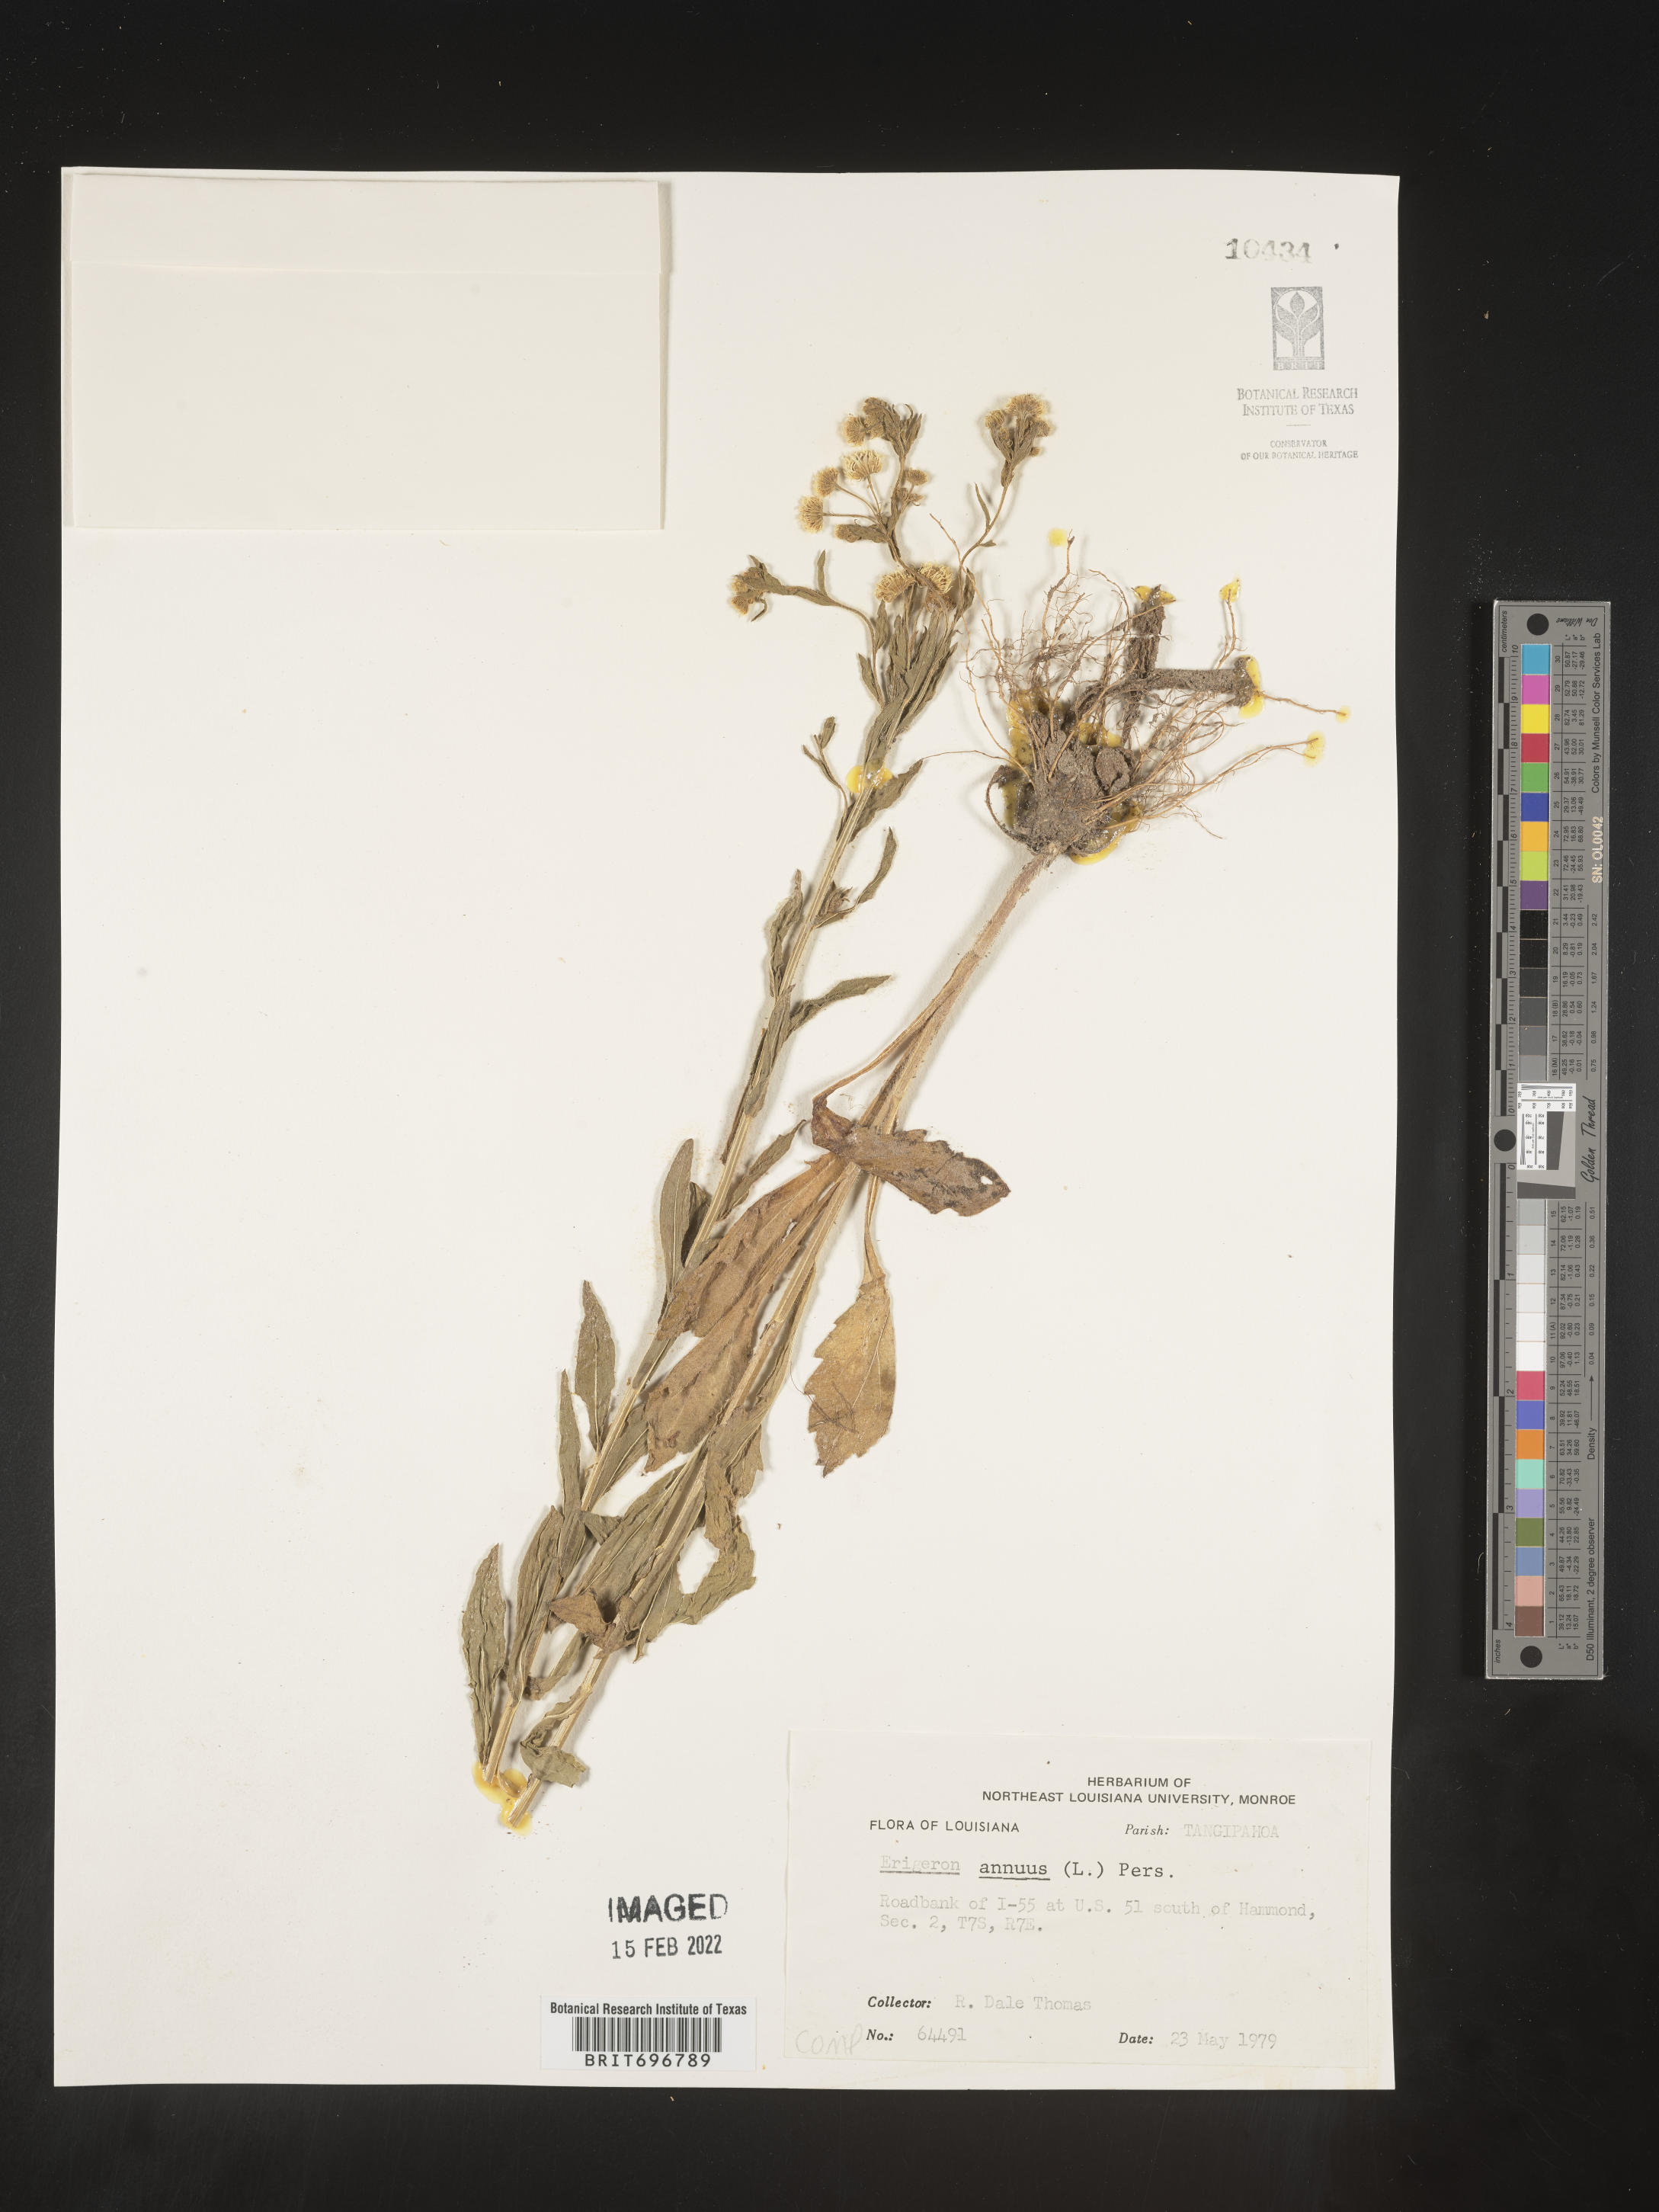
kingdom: Plantae
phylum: Tracheophyta
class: Magnoliopsida
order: Asterales
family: Asteraceae
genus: Erigeron
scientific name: Erigeron annuus
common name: Tall fleabane
